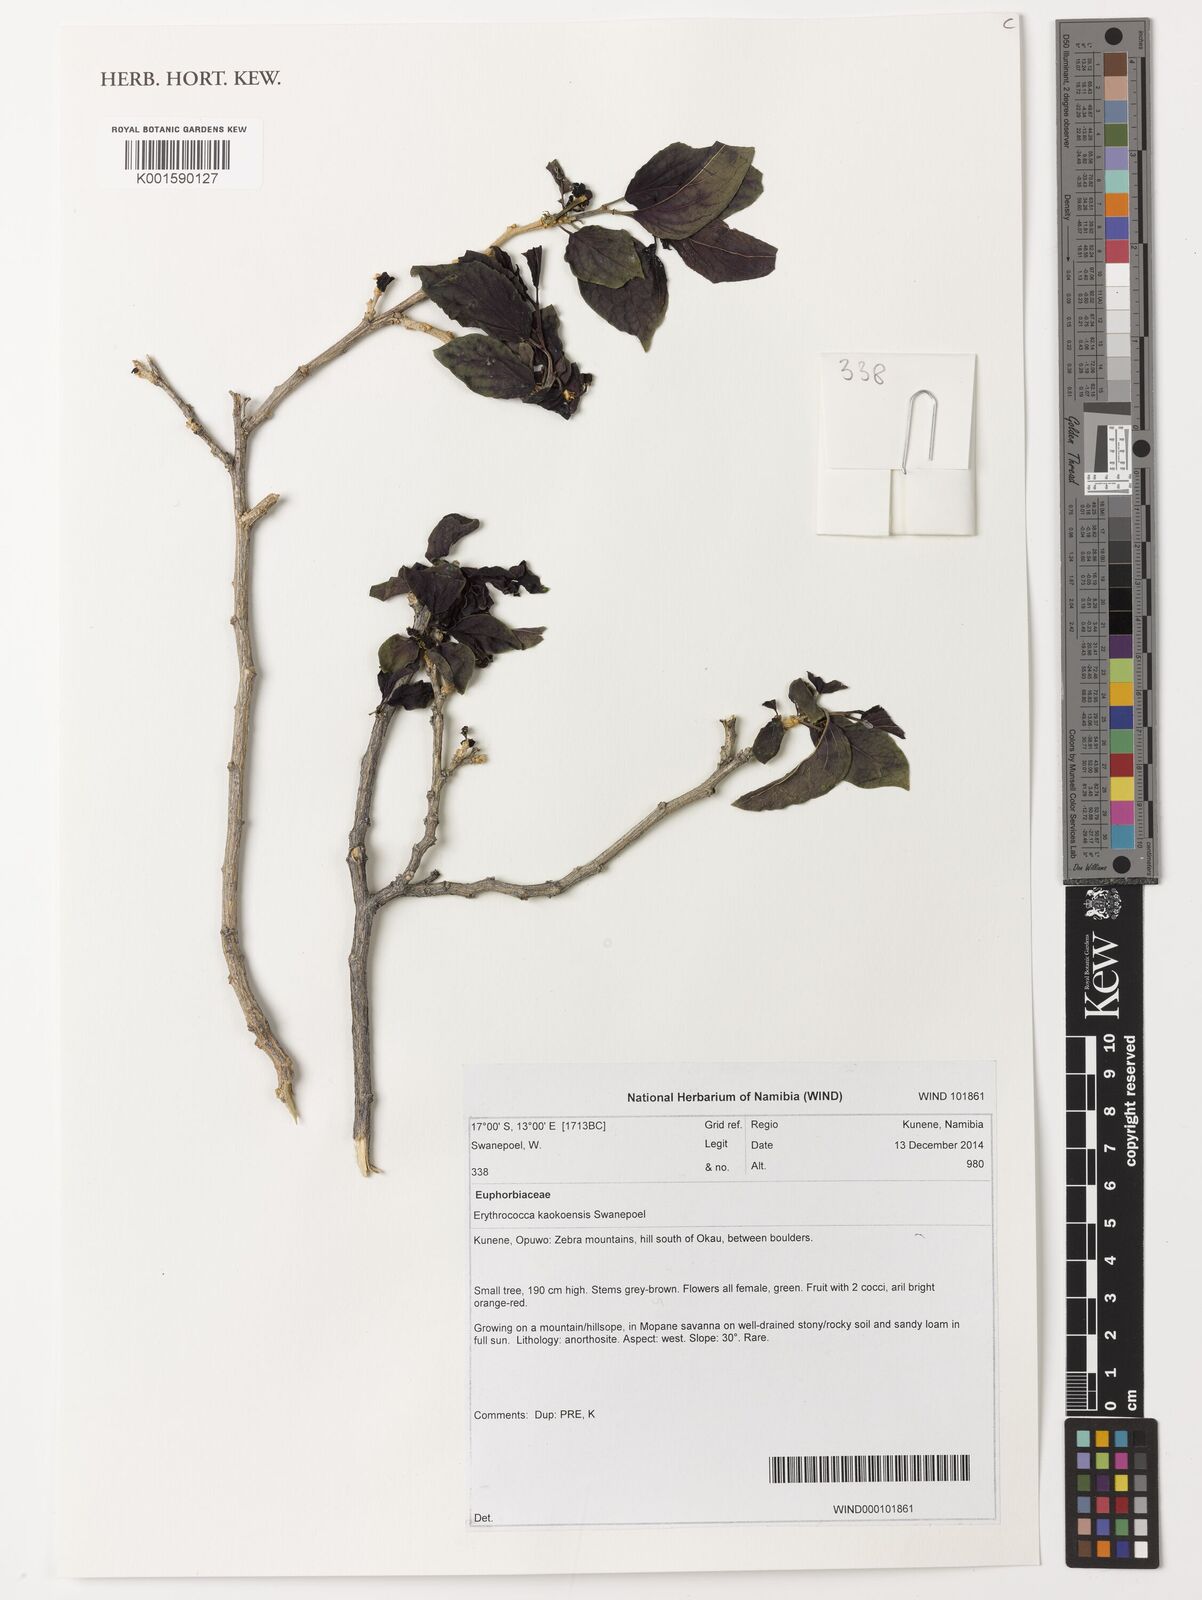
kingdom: Plantae
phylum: Tracheophyta
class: Magnoliopsida
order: Malpighiales
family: Euphorbiaceae
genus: Erythrococca
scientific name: Erythrococca kaokoensis
